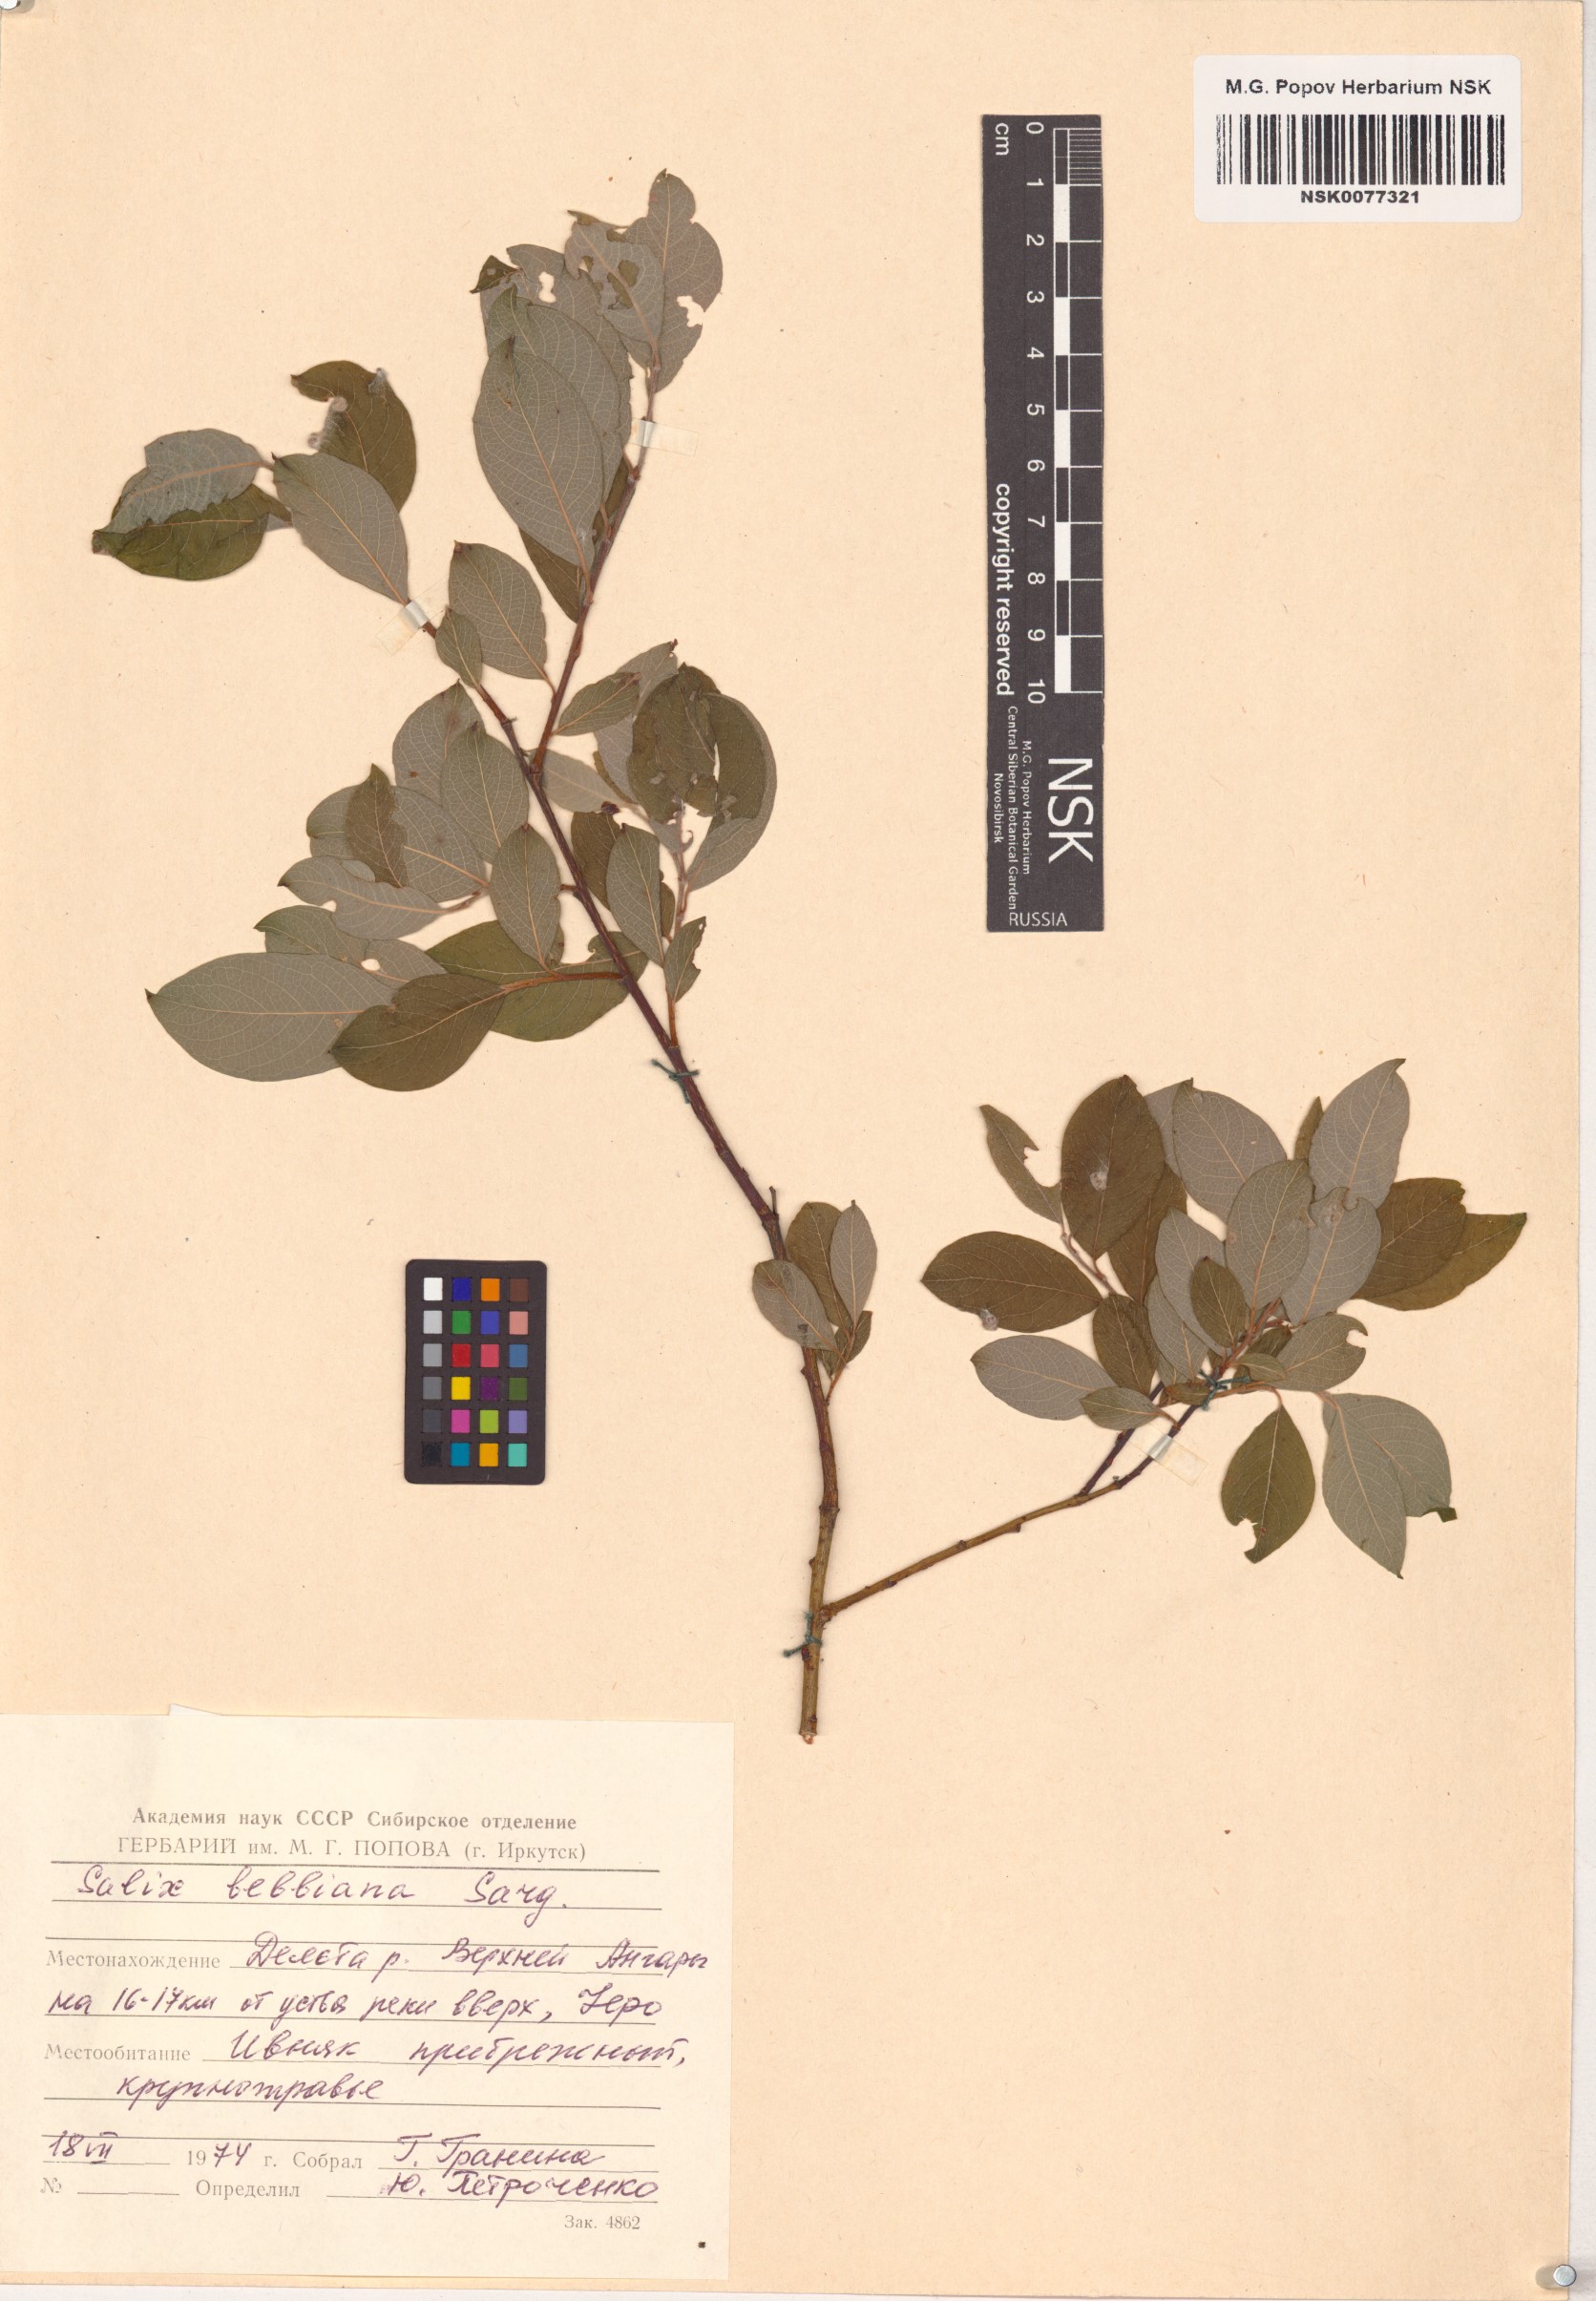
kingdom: Plantae
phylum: Tracheophyta
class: Magnoliopsida
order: Malpighiales
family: Salicaceae
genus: Salix
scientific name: Salix bebbiana
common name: Bebb's willow
